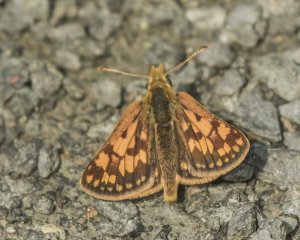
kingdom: Animalia
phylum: Arthropoda
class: Insecta
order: Lepidoptera
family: Hesperiidae
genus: Carterocephalus
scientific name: Carterocephalus palaemon
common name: Chequered Skipper
